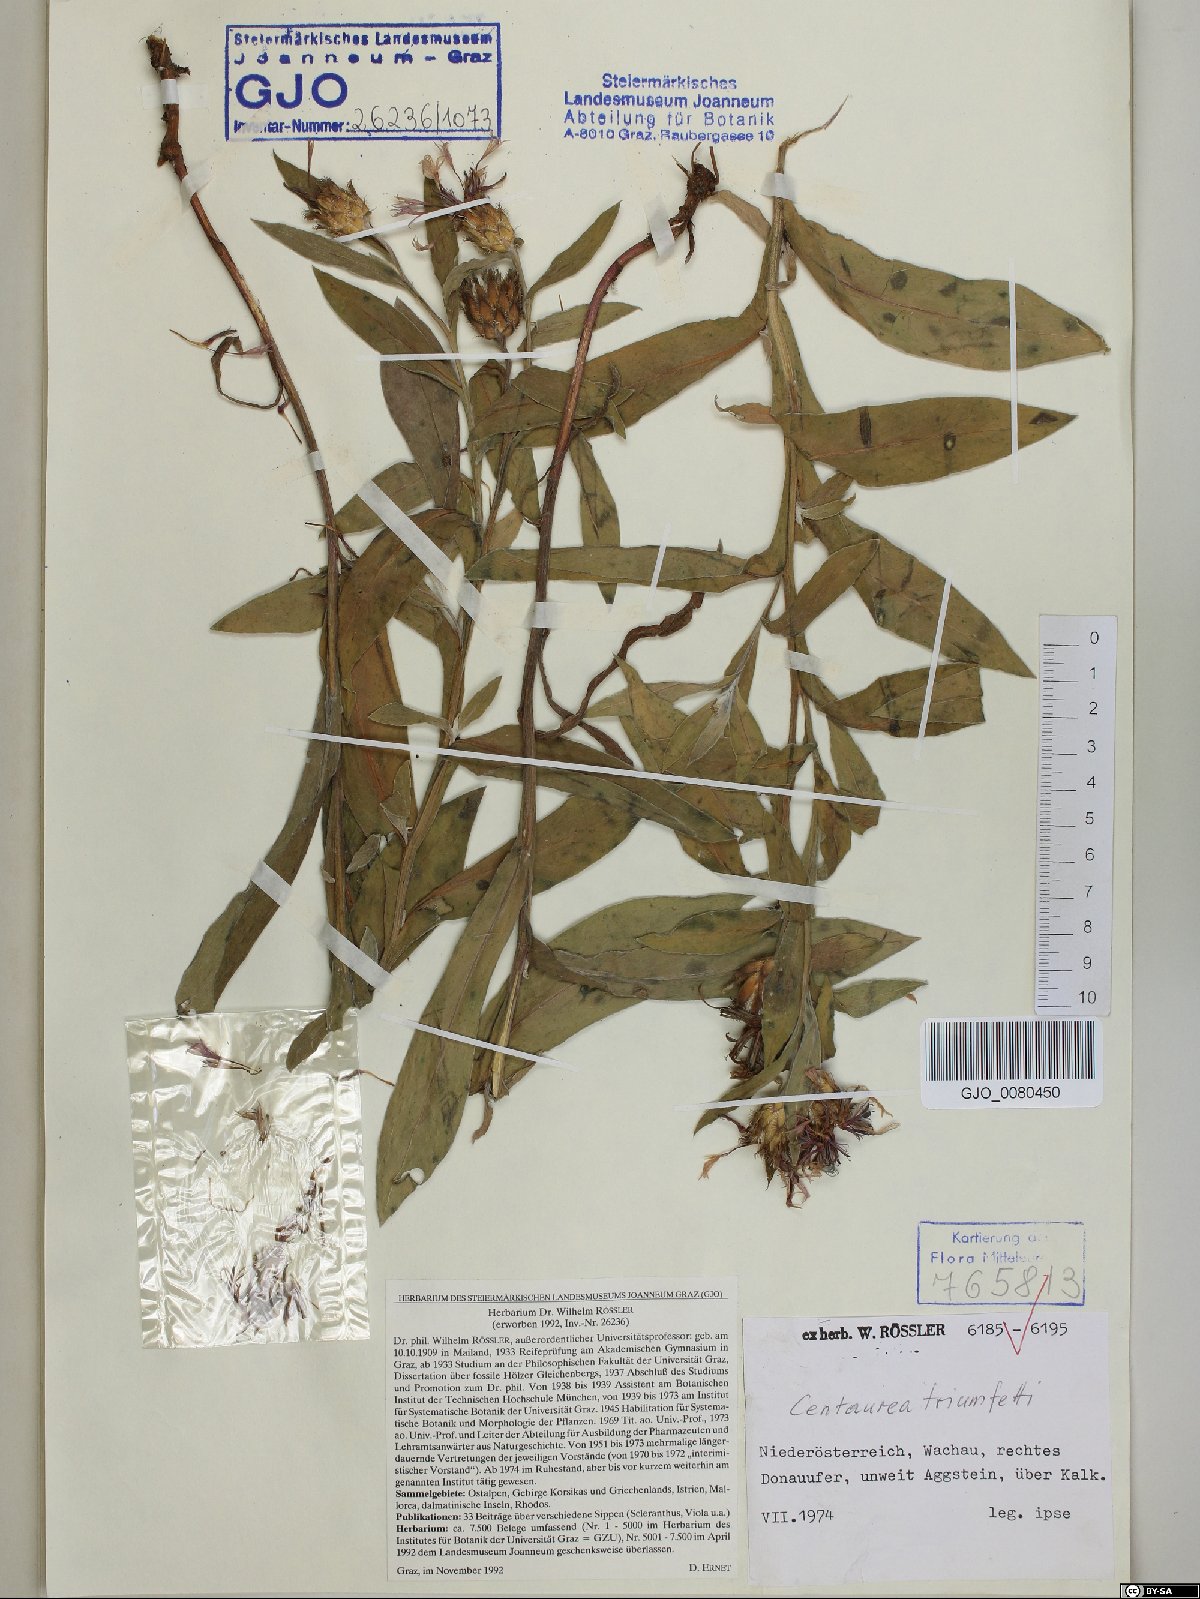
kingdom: Plantae
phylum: Tracheophyta
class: Magnoliopsida
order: Asterales
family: Asteraceae
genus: Centaurea
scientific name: Centaurea triumfettii
